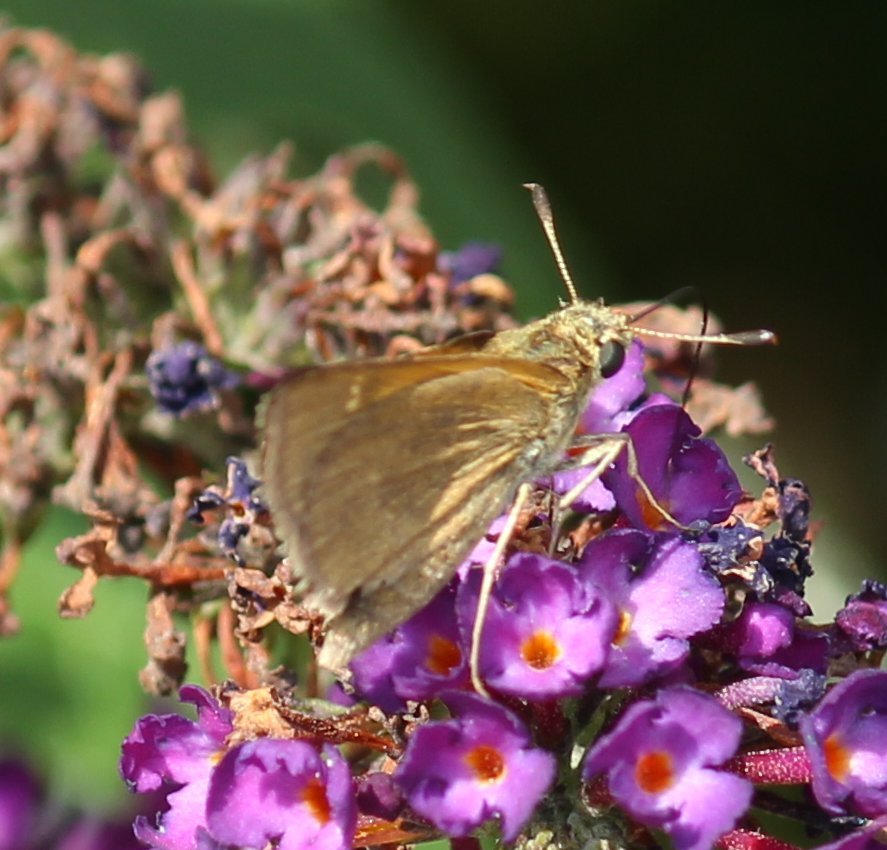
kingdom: Animalia
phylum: Arthropoda
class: Insecta
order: Lepidoptera
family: Hesperiidae
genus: Polites
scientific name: Polites themistocles
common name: Tawny-edged Skipper
